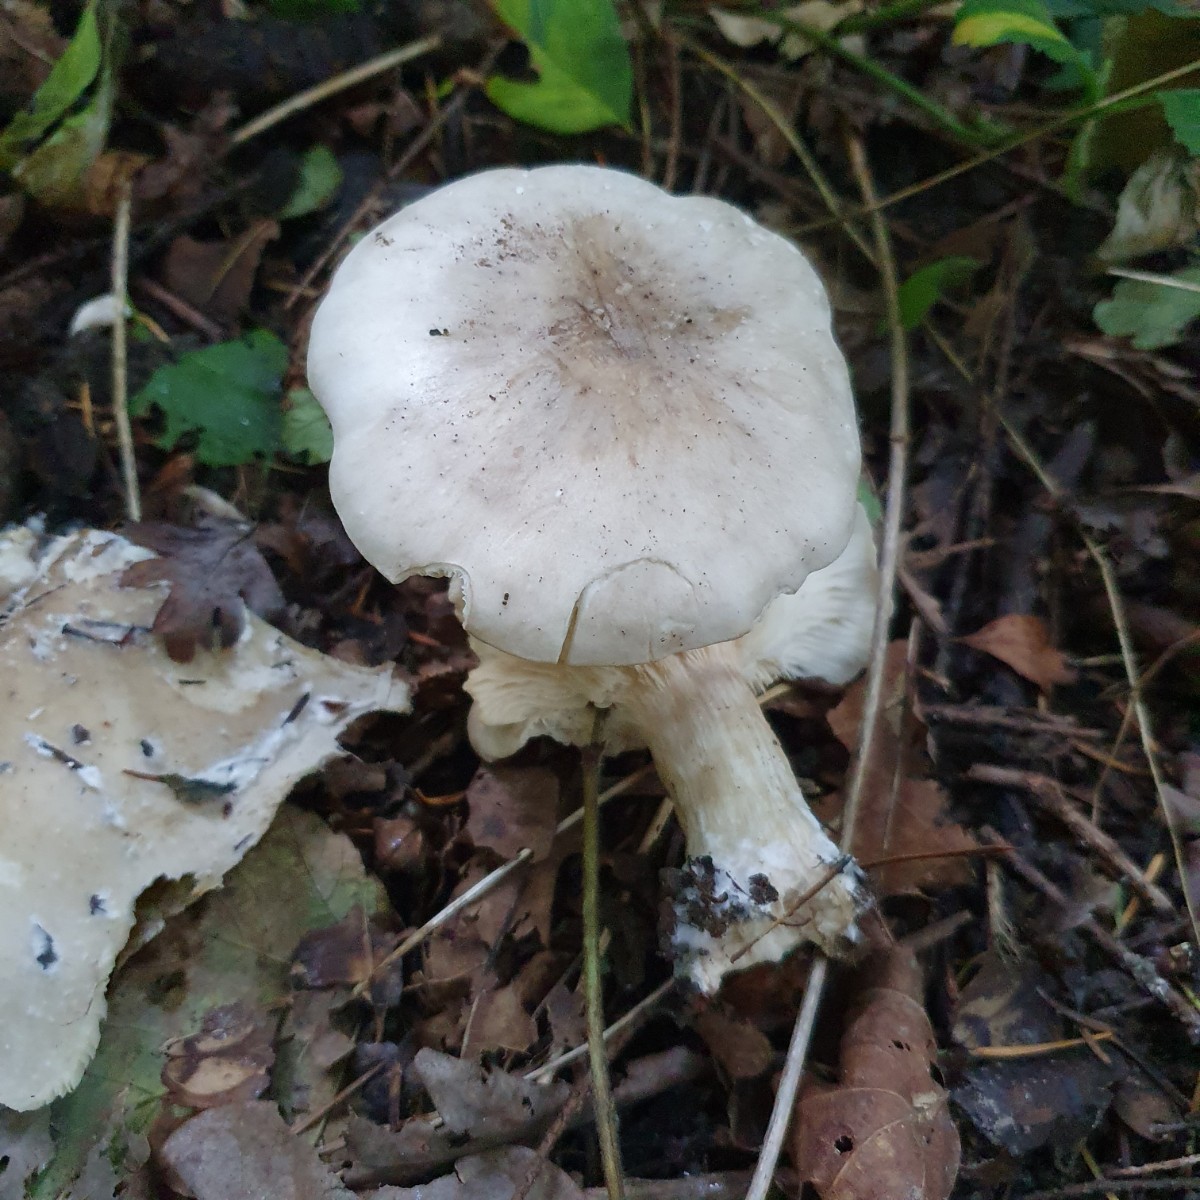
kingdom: Fungi
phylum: Basidiomycota
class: Agaricomycetes
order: Agaricales
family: Tricholomataceae
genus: Clitocybe
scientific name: Clitocybe nebularis
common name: tåge-tragthat
